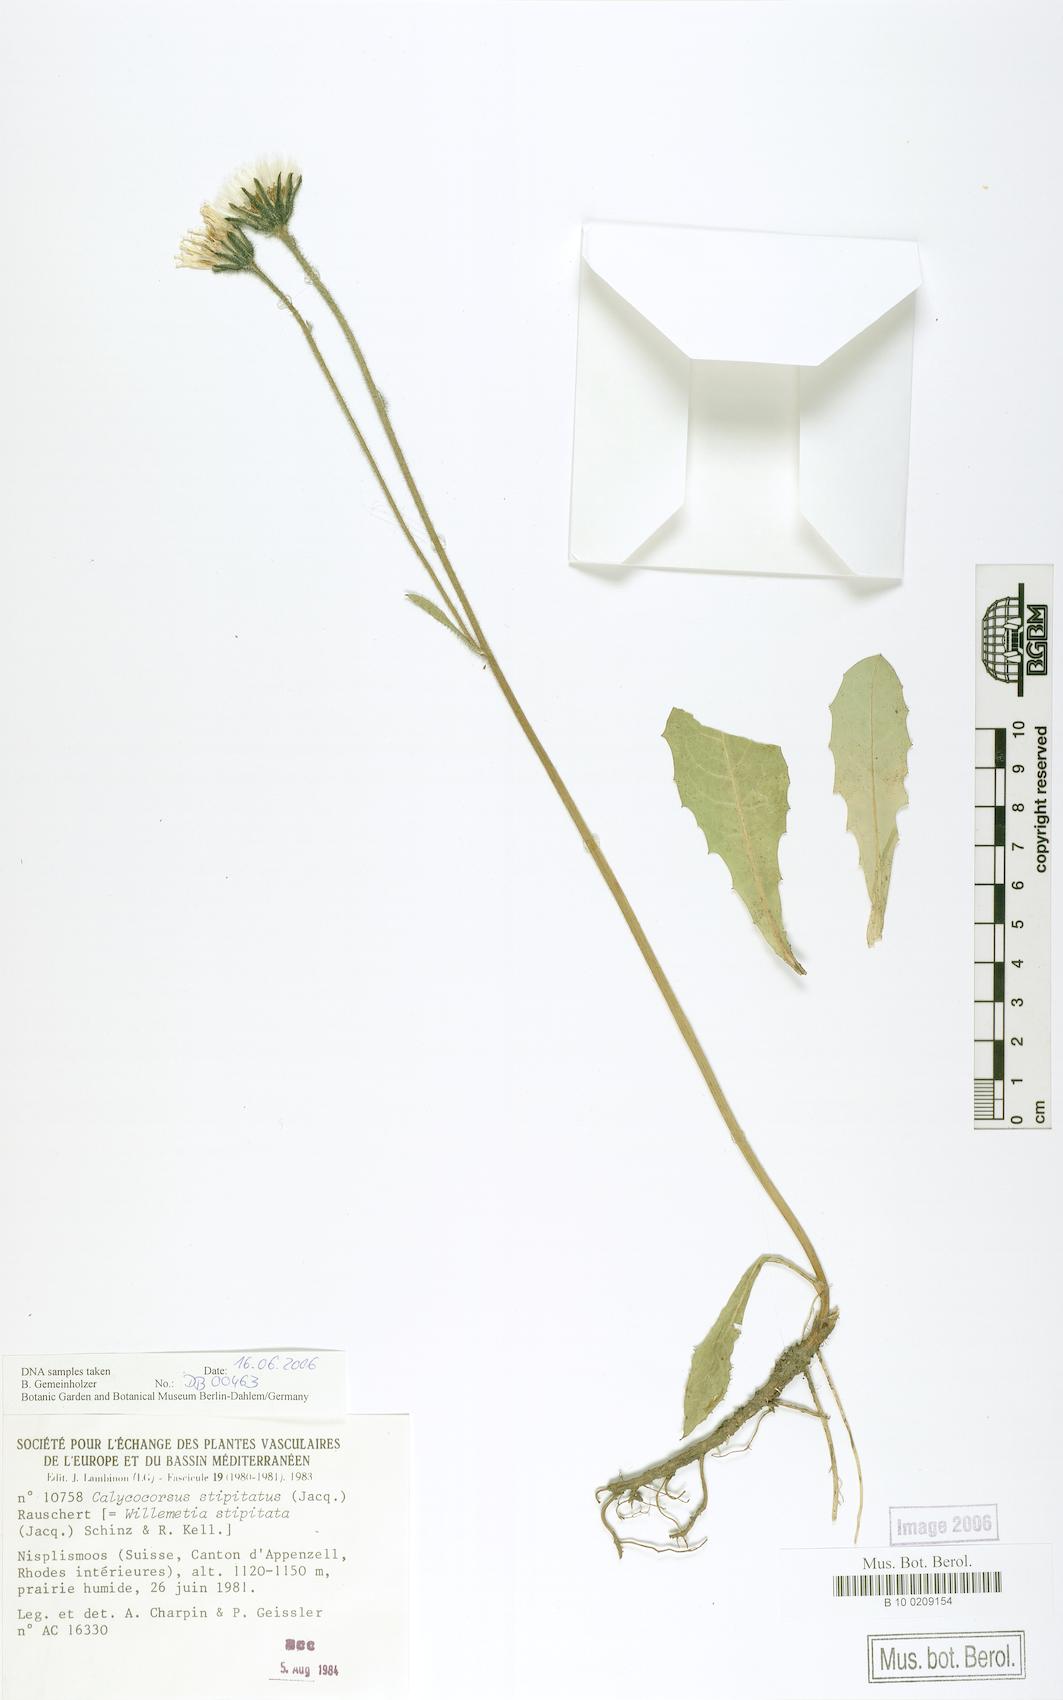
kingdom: Plantae
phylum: Tracheophyta
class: Magnoliopsida
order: Asterales
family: Asteraceae
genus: Willemetia
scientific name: Willemetia stipitata
